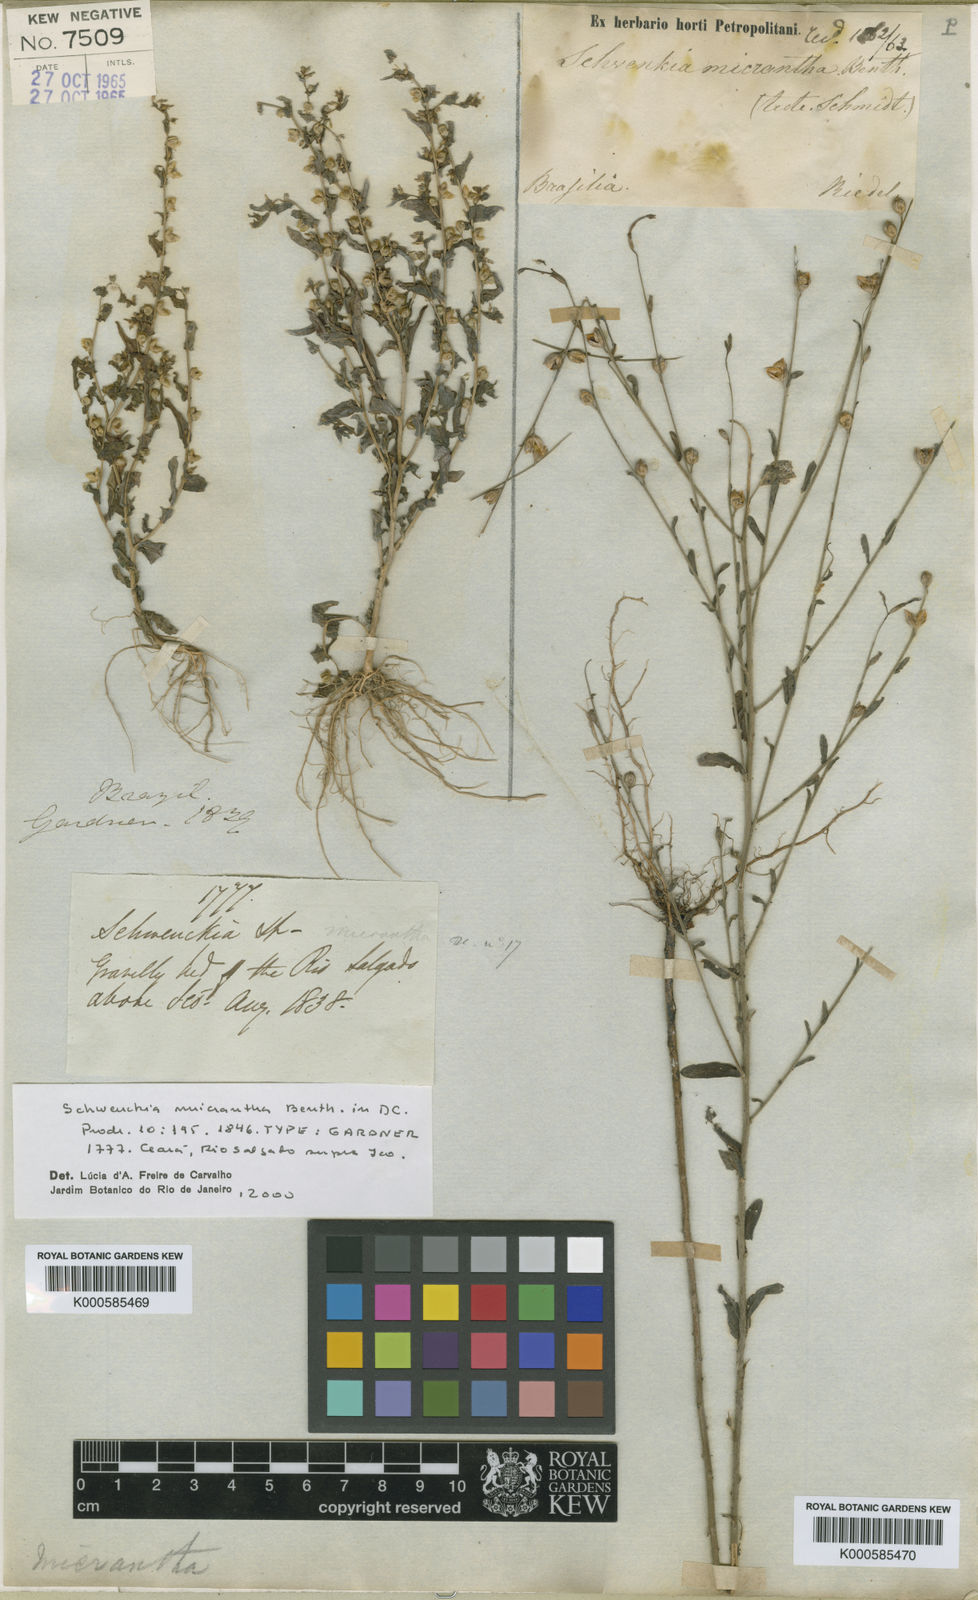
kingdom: Plantae
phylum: Tracheophyta
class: Magnoliopsida
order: Solanales
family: Solanaceae
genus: Schwenckia
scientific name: Schwenckia micrantha
